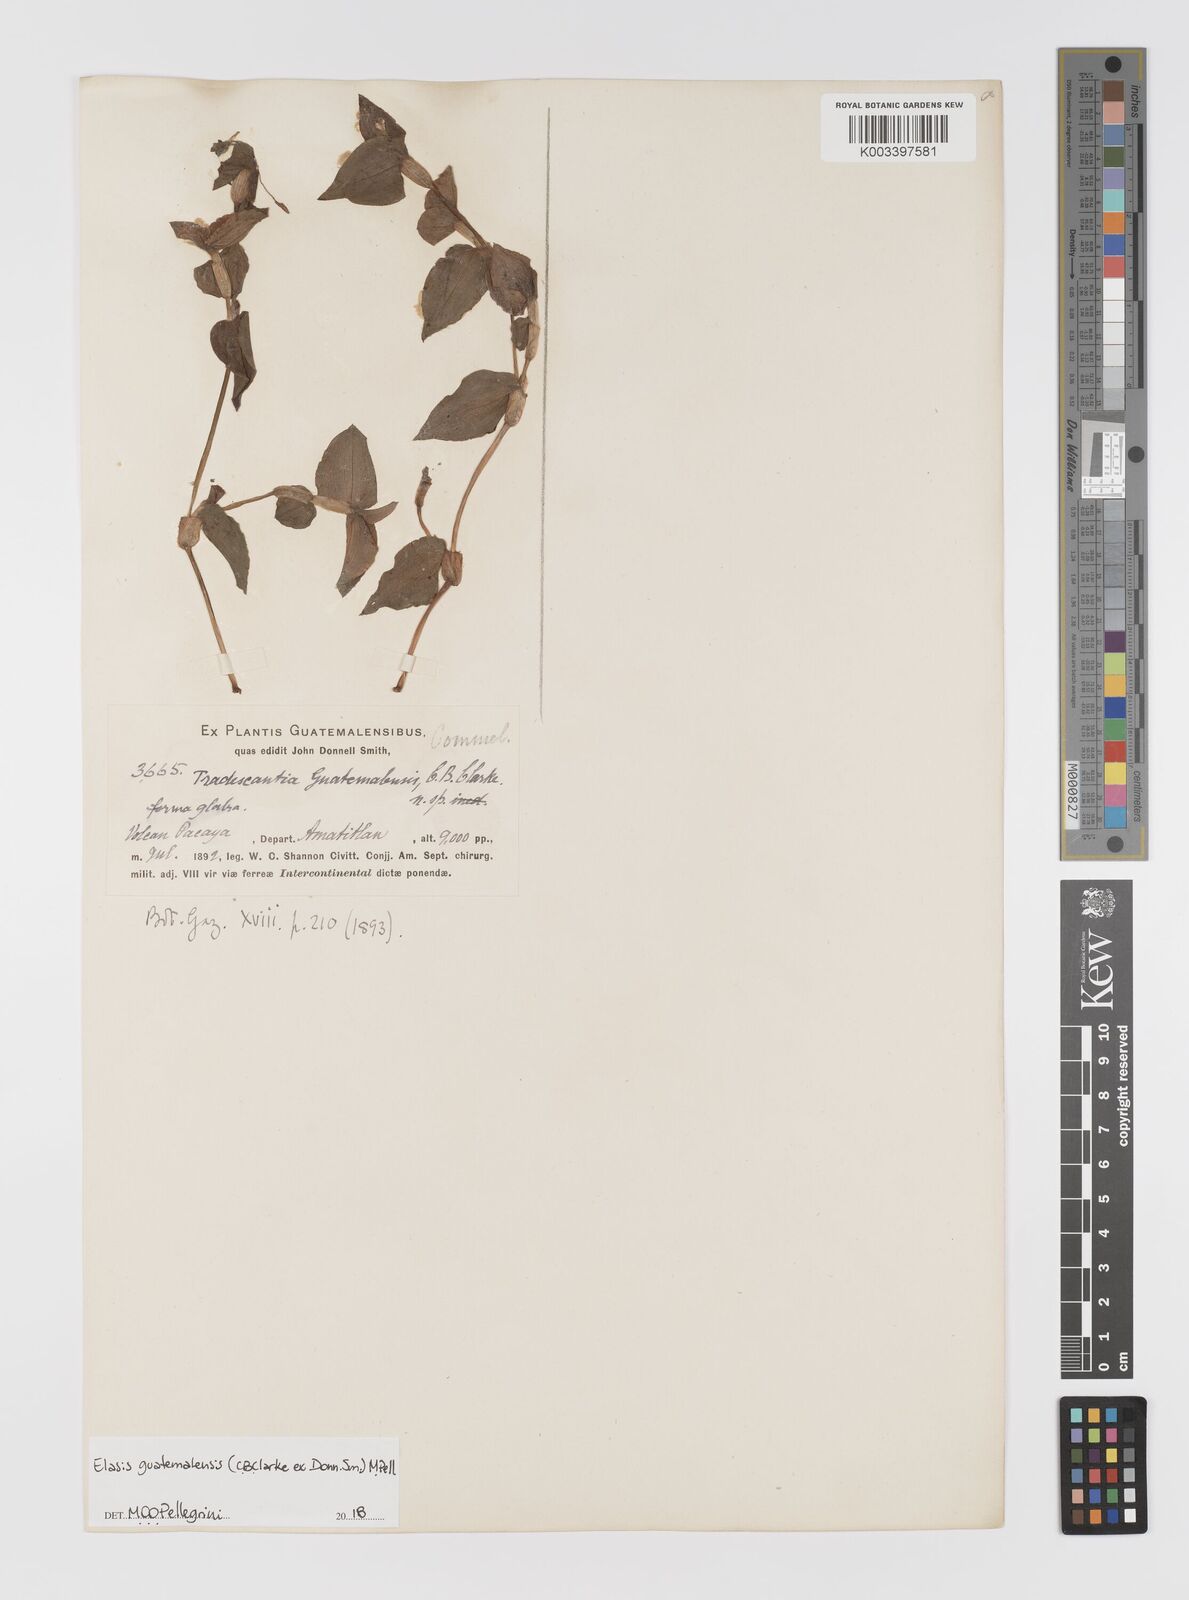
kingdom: Plantae
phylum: Tracheophyta
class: Liliopsida
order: Commelinales
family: Commelinaceae
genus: Elasis
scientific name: Elasis guatemalensis
